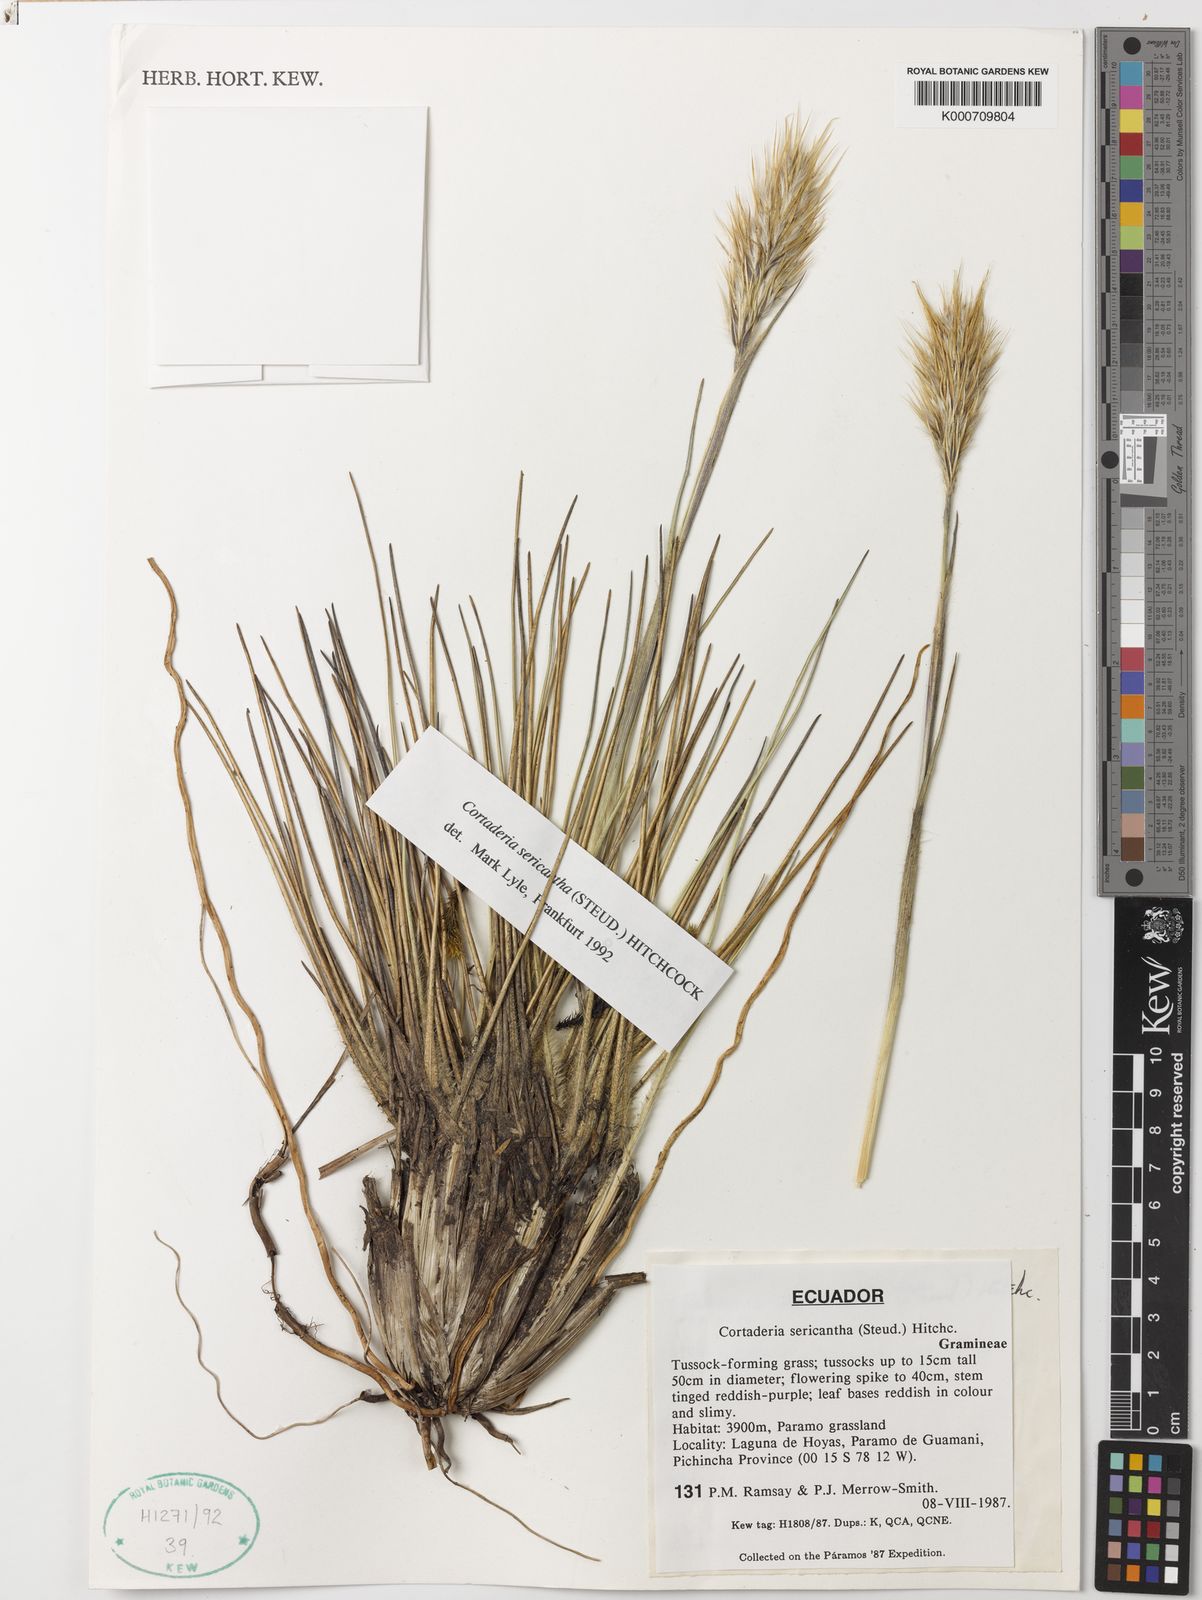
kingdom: Plantae
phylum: Tracheophyta
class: Liliopsida
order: Poales
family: Poaceae
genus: Cortaderia
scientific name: Cortaderia sericantha
